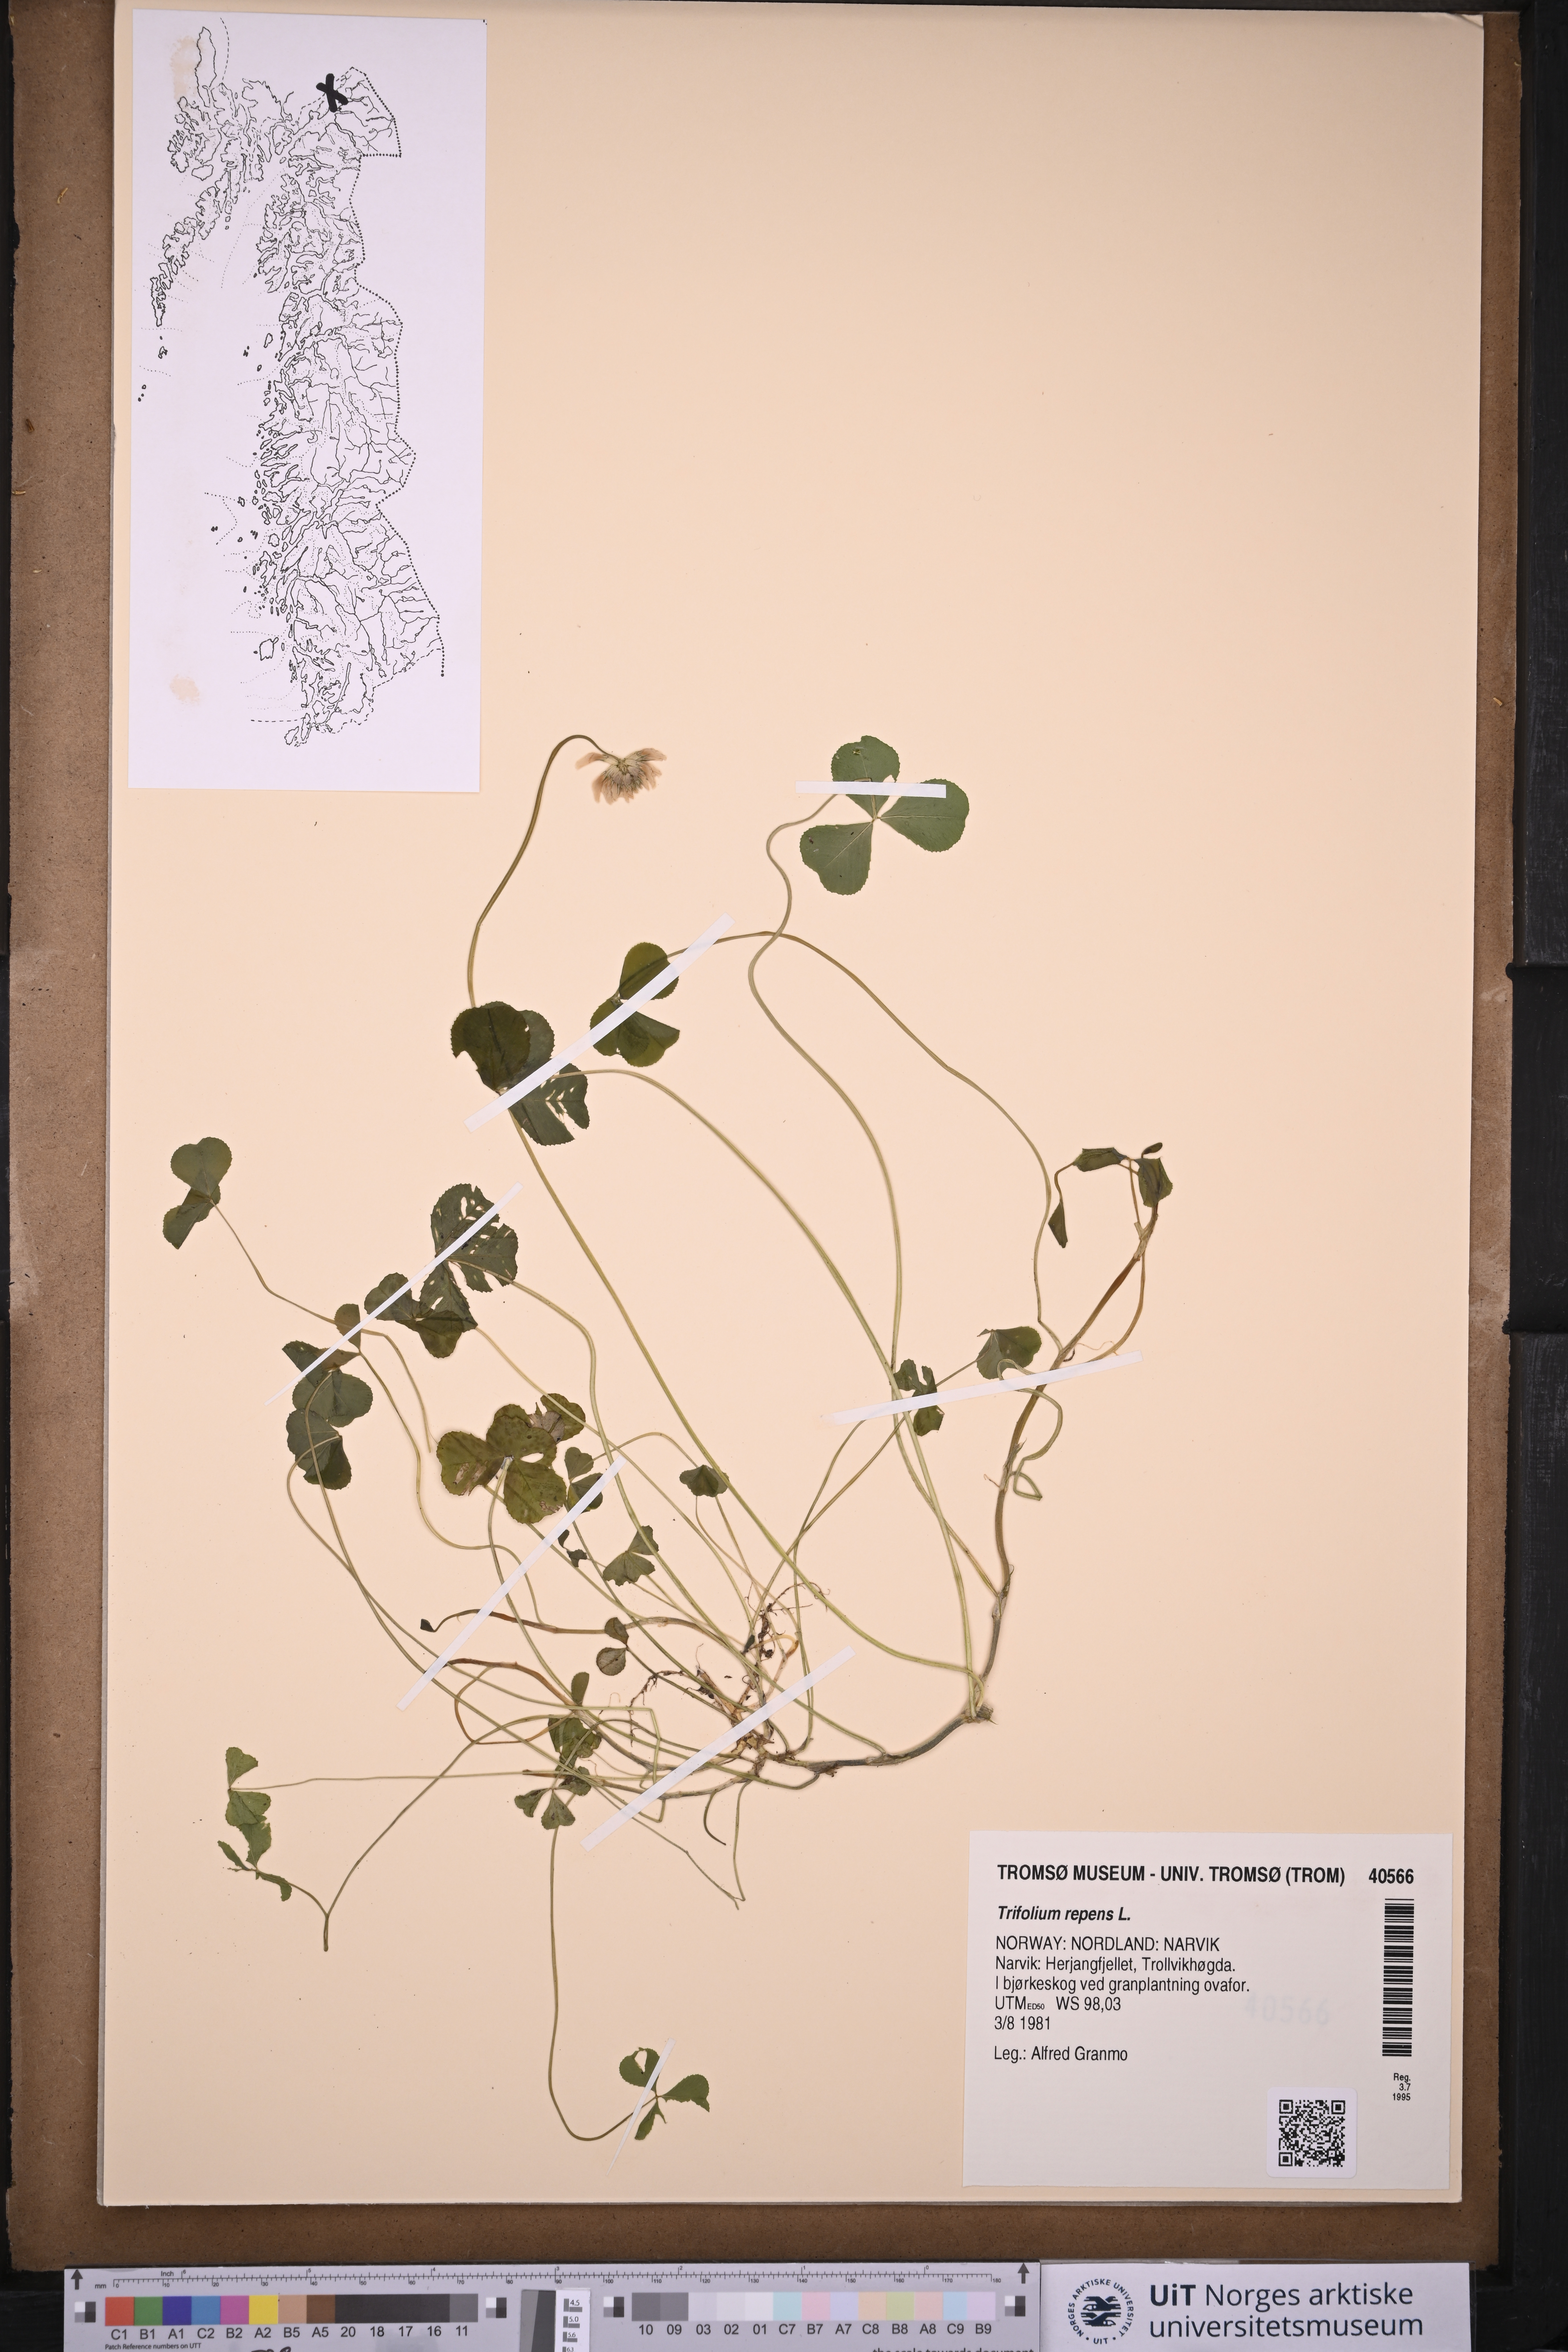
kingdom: Plantae
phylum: Tracheophyta
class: Magnoliopsida
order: Fabales
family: Fabaceae
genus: Trifolium
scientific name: Trifolium repens
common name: White clover
